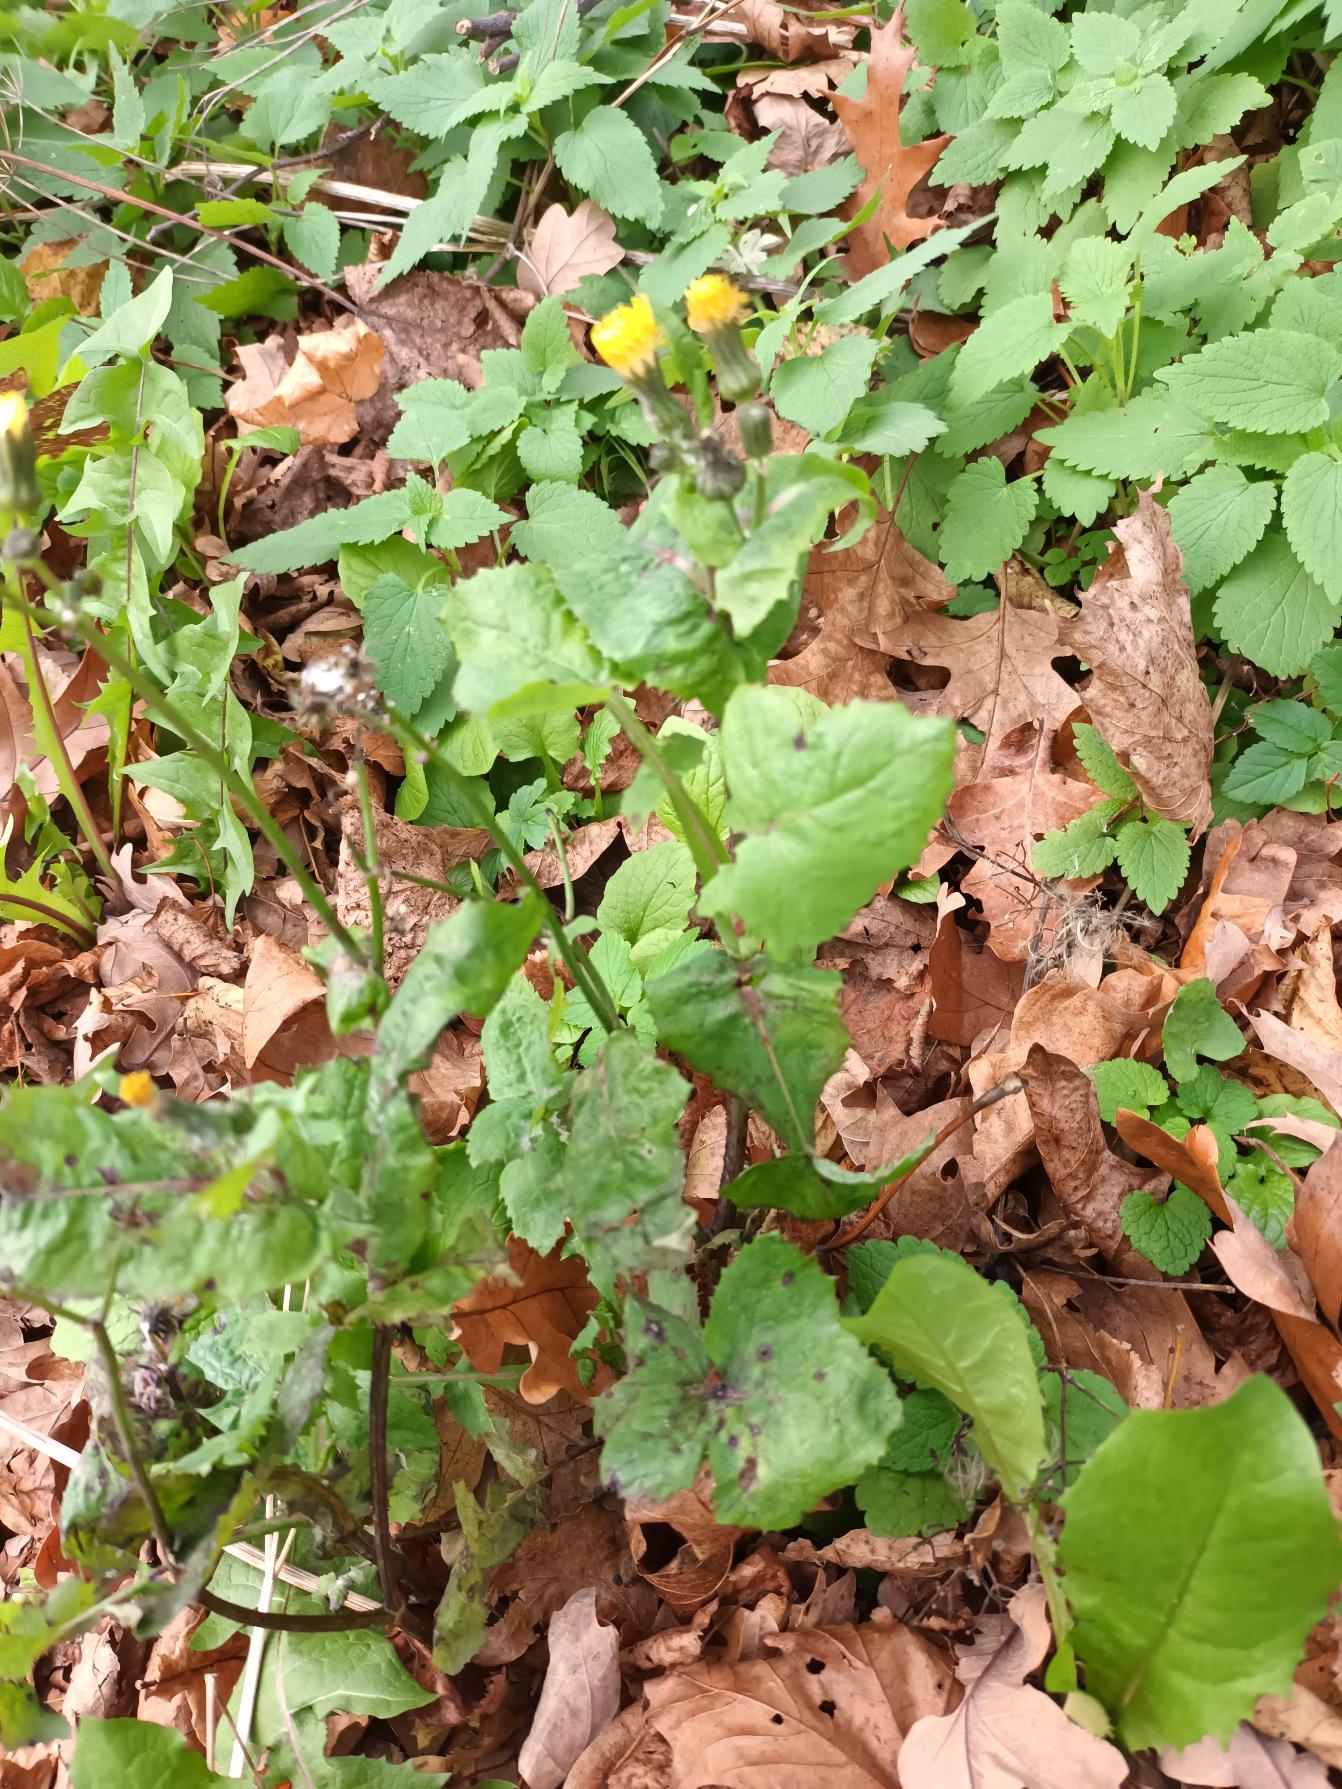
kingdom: Plantae
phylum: Tracheophyta
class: Magnoliopsida
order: Asterales
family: Asteraceae
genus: Sonchus
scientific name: Sonchus oleraceus
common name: Almindelig svinemælk
